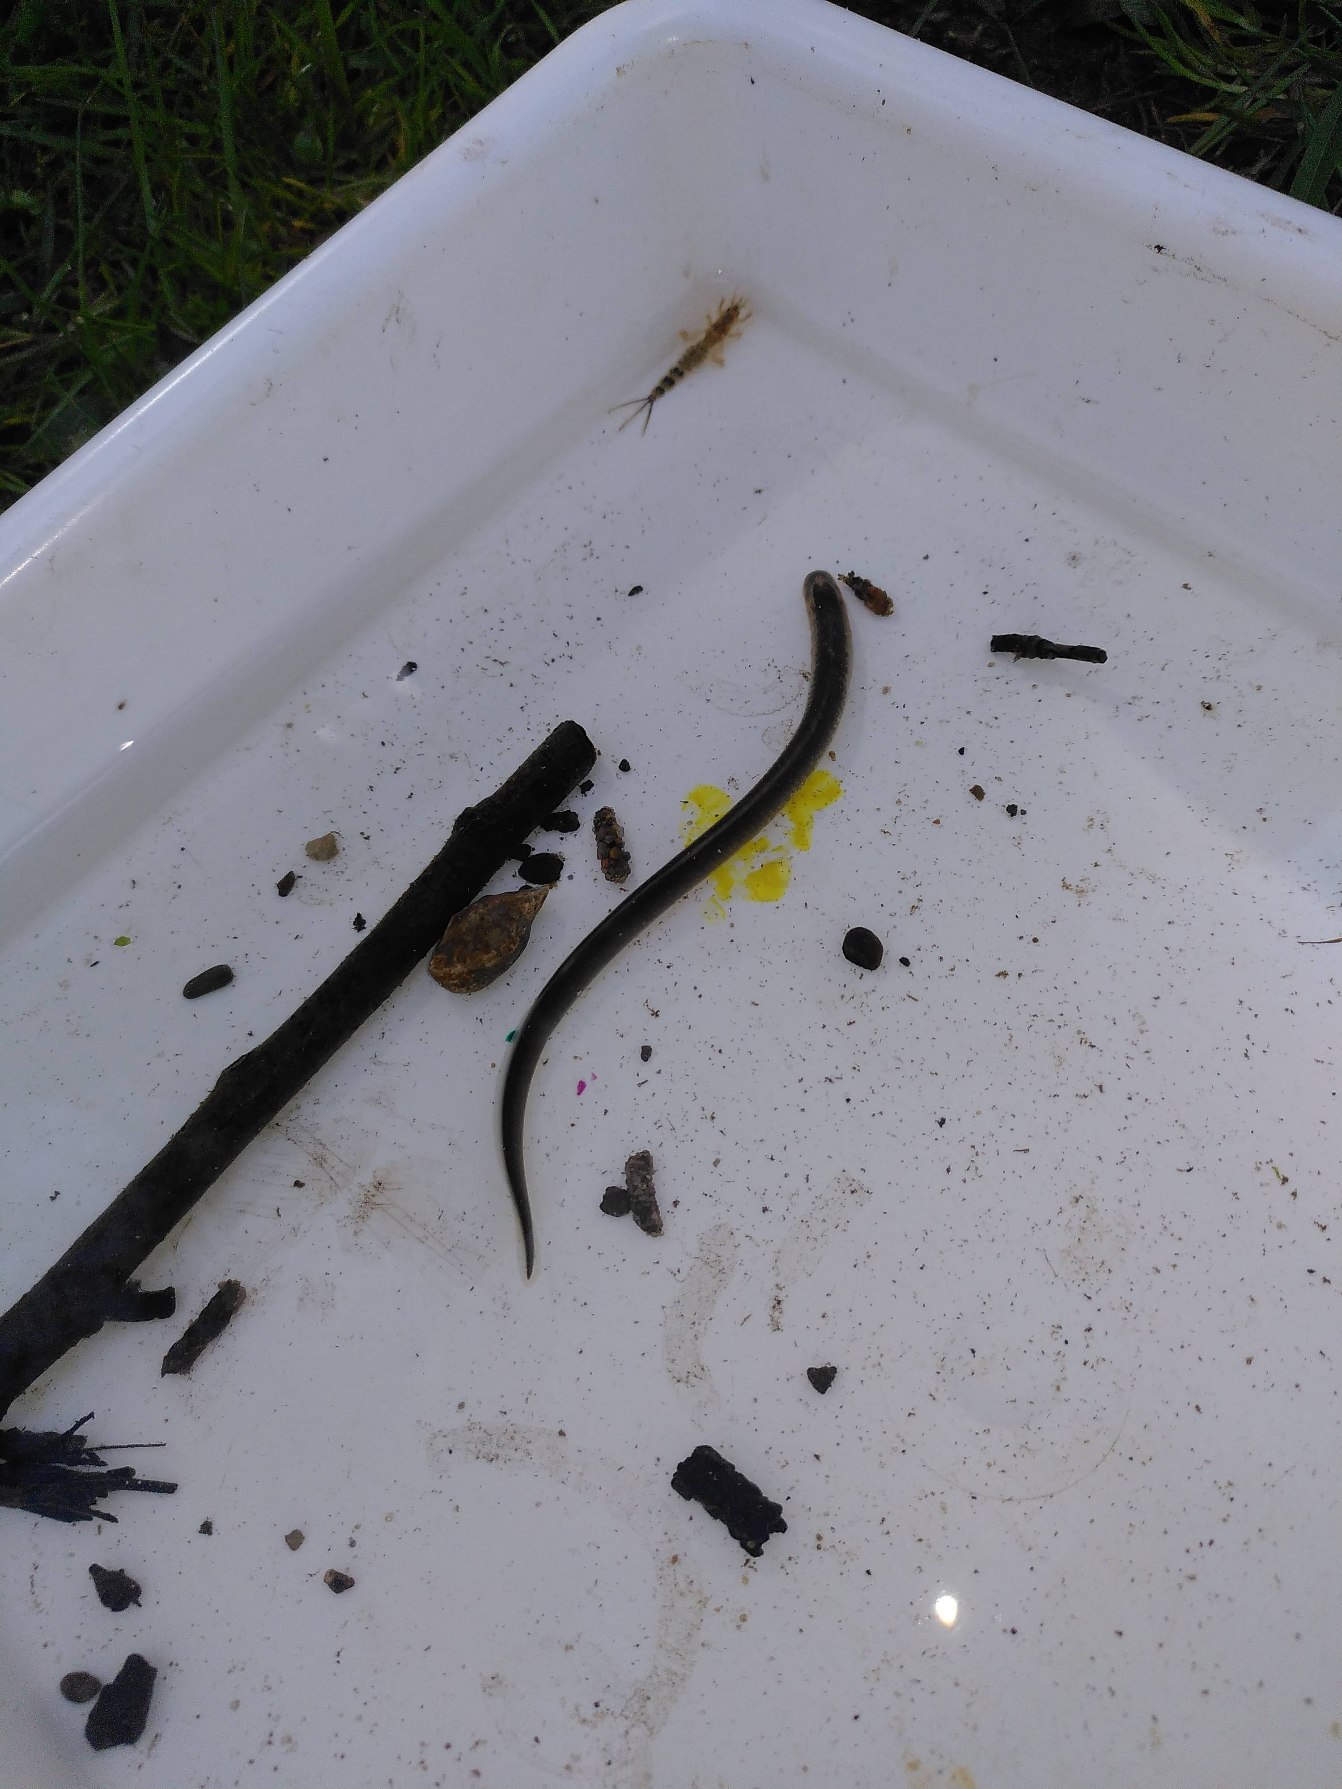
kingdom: Animalia
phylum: Chordata
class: Petromyzonti
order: Petromyzontiformes
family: Petromyzontidae
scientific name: Petromyzontidae
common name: Lampretfamilien
